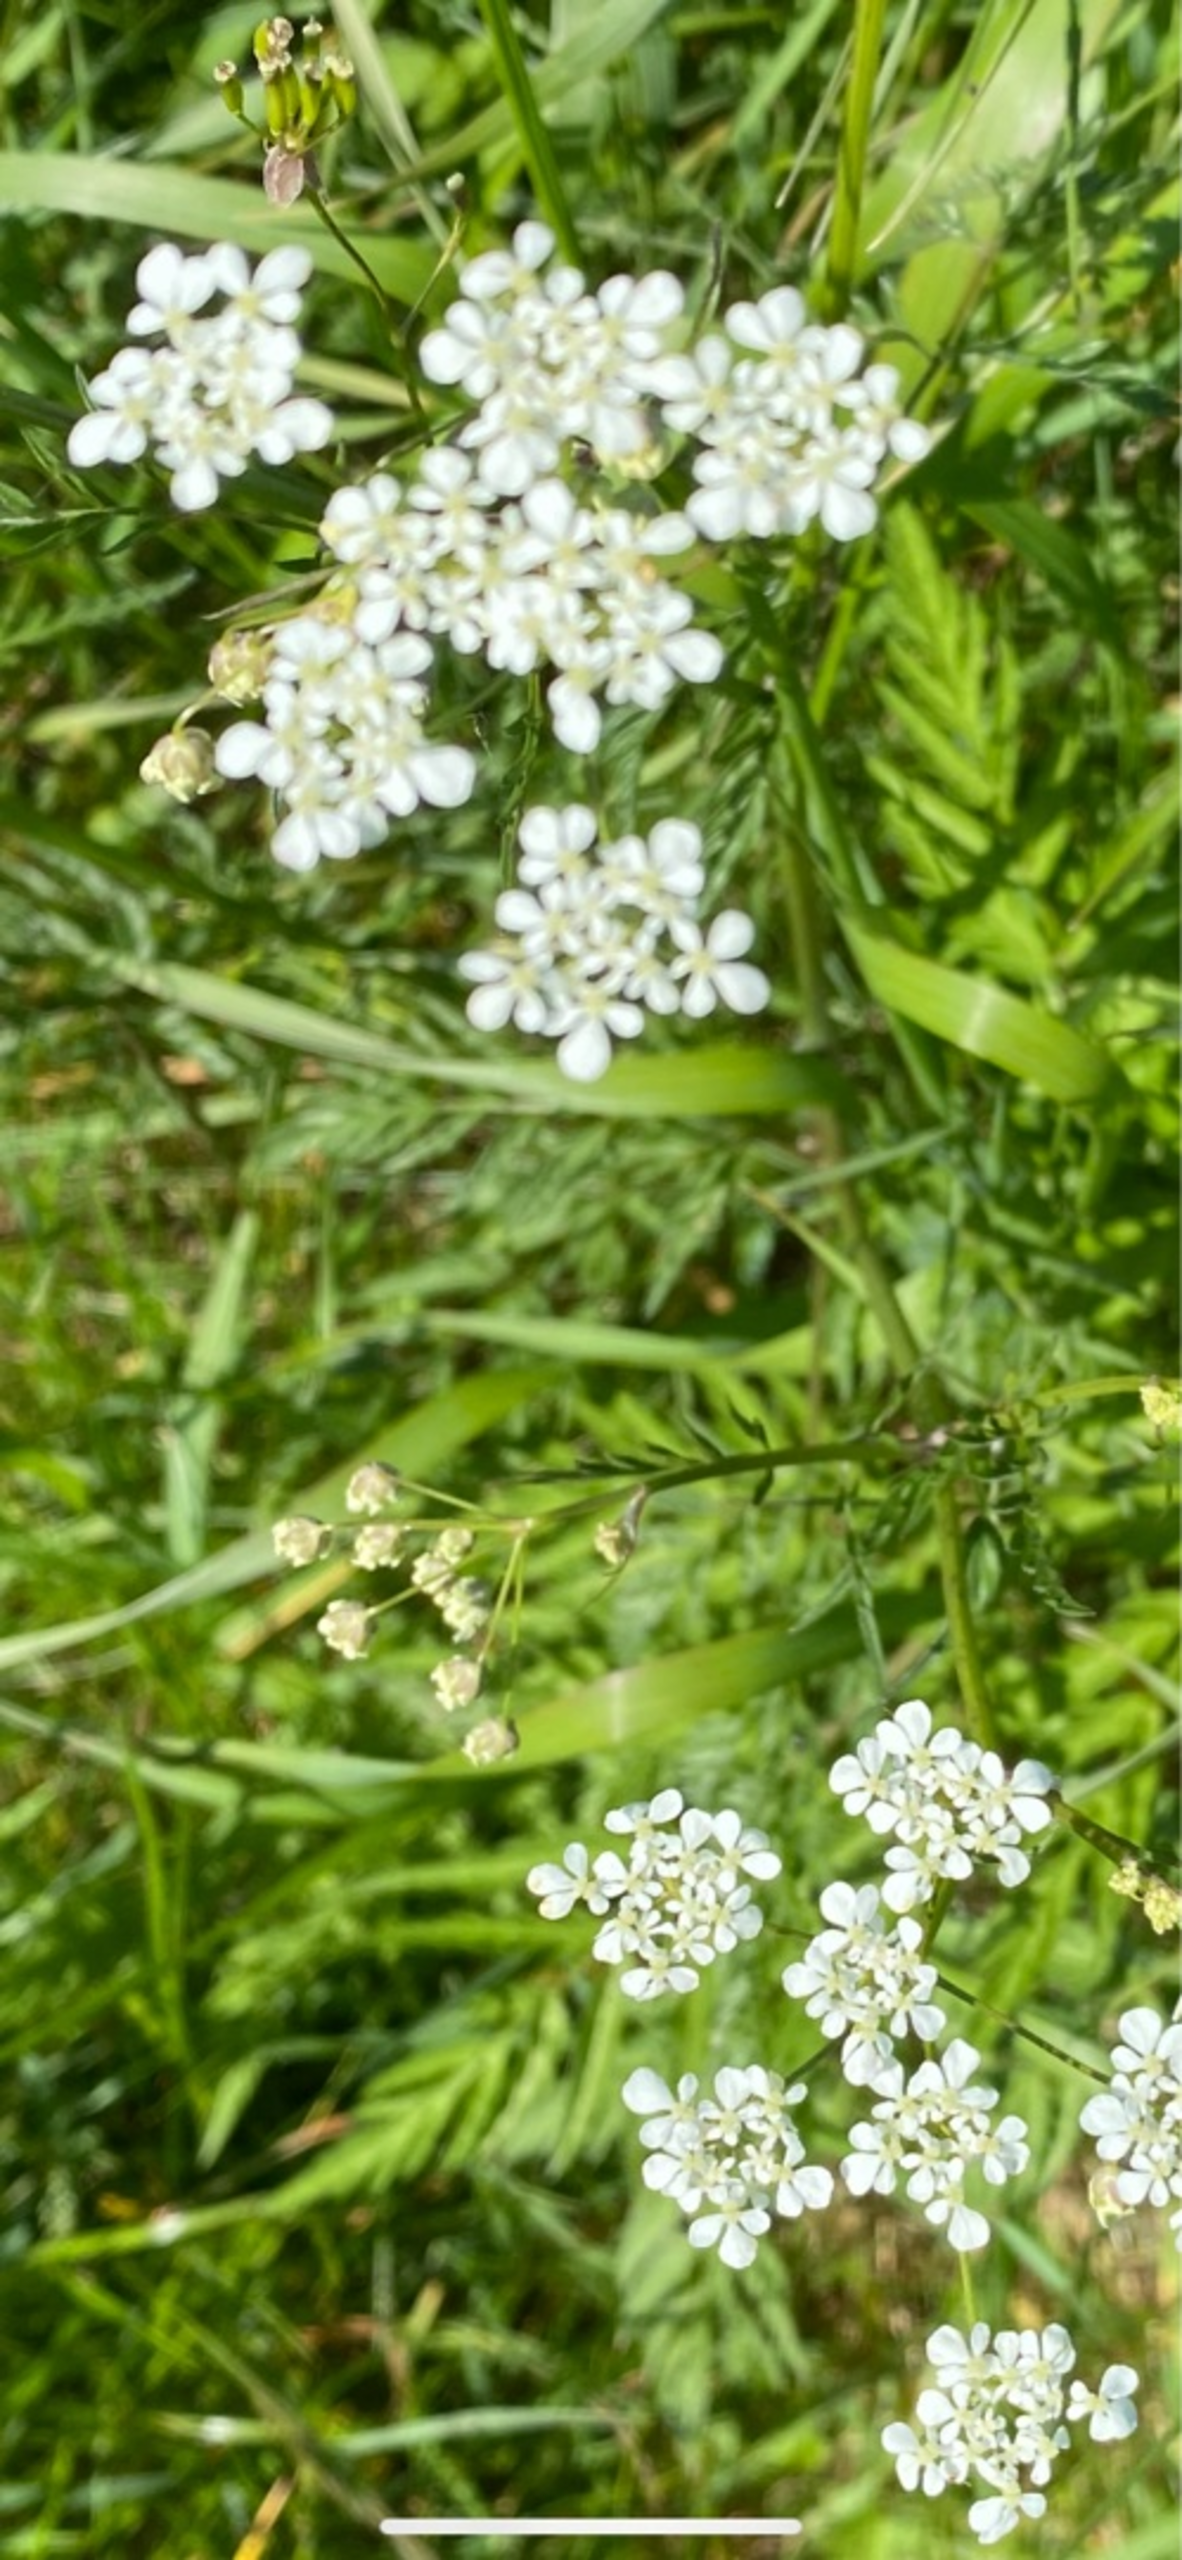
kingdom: Plantae
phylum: Tracheophyta
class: Magnoliopsida
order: Apiales
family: Apiaceae
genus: Anthriscus
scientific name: Anthriscus sylvestris
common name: Vild kørvel
